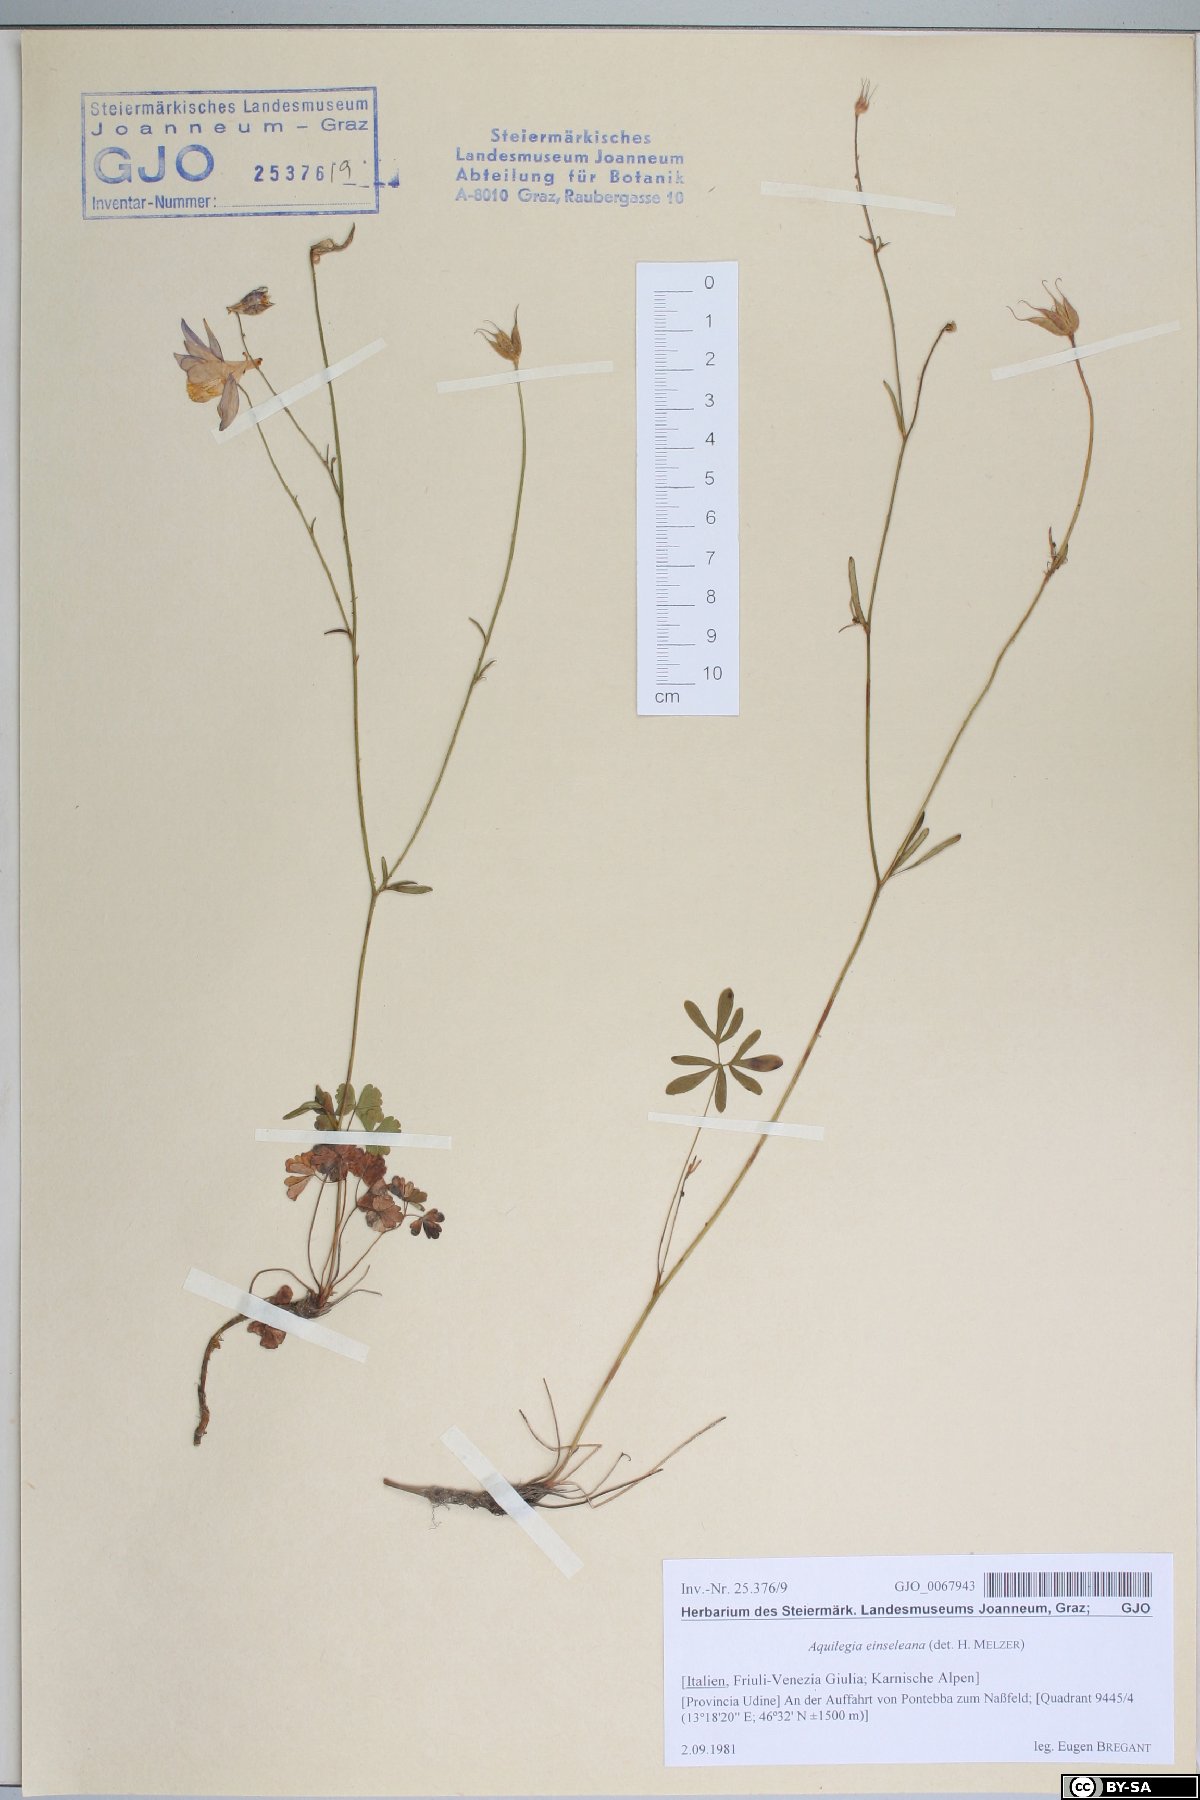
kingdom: Plantae
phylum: Tracheophyta
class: Magnoliopsida
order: Ranunculales
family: Ranunculaceae
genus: Aquilegia
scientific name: Aquilegia einseleana
